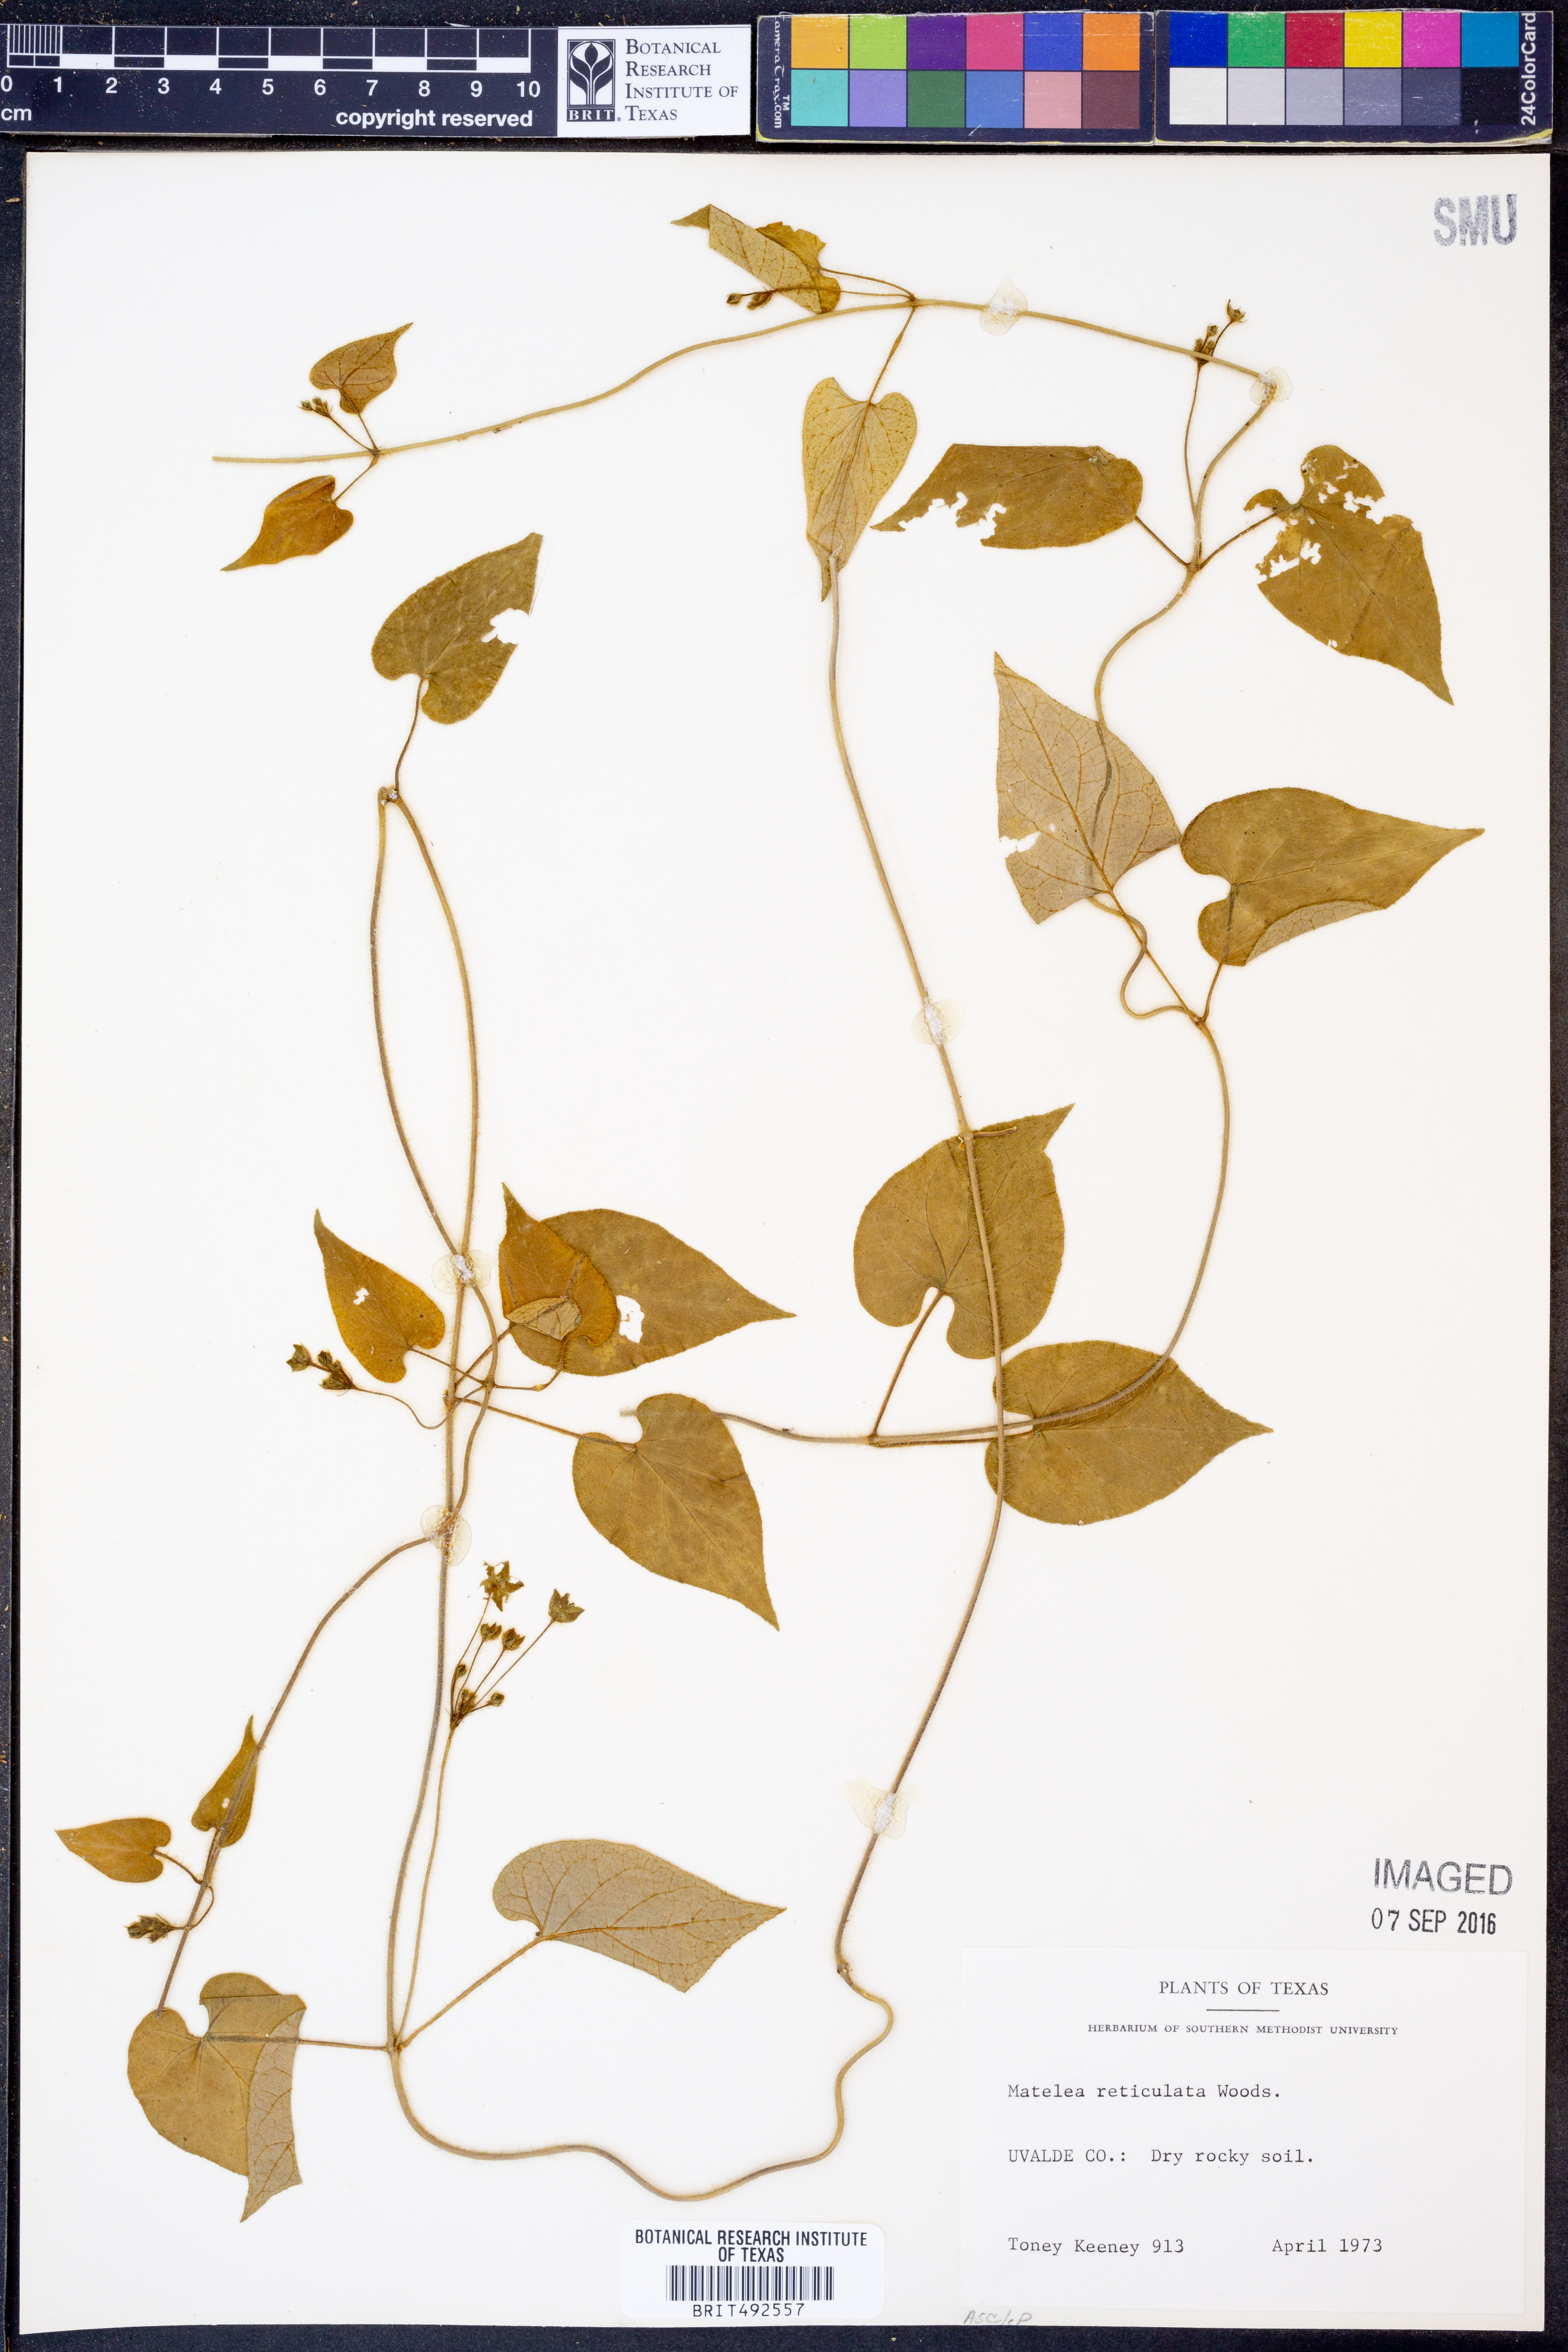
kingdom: Plantae
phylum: Tracheophyta
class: Magnoliopsida
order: Gentianales
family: Apocynaceae
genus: Dictyanthus
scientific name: Dictyanthus reticulatus
